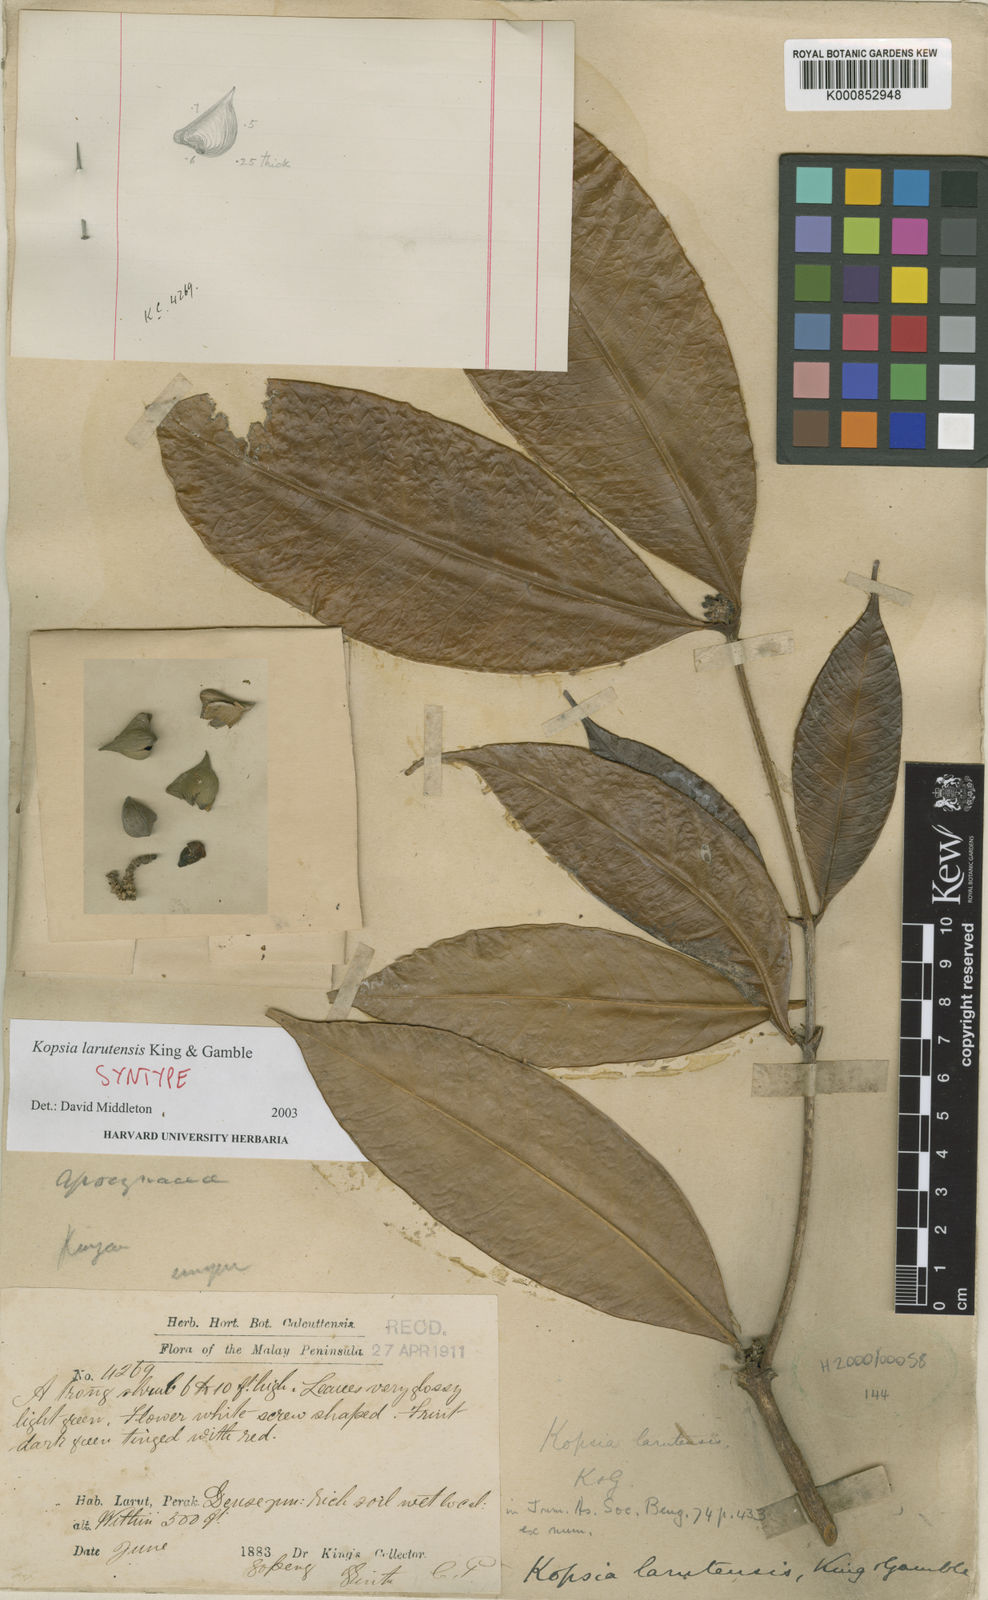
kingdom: Plantae
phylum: Tracheophyta
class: Magnoliopsida
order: Gentianales
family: Apocynaceae
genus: Kopsia
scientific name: Kopsia larutensis
